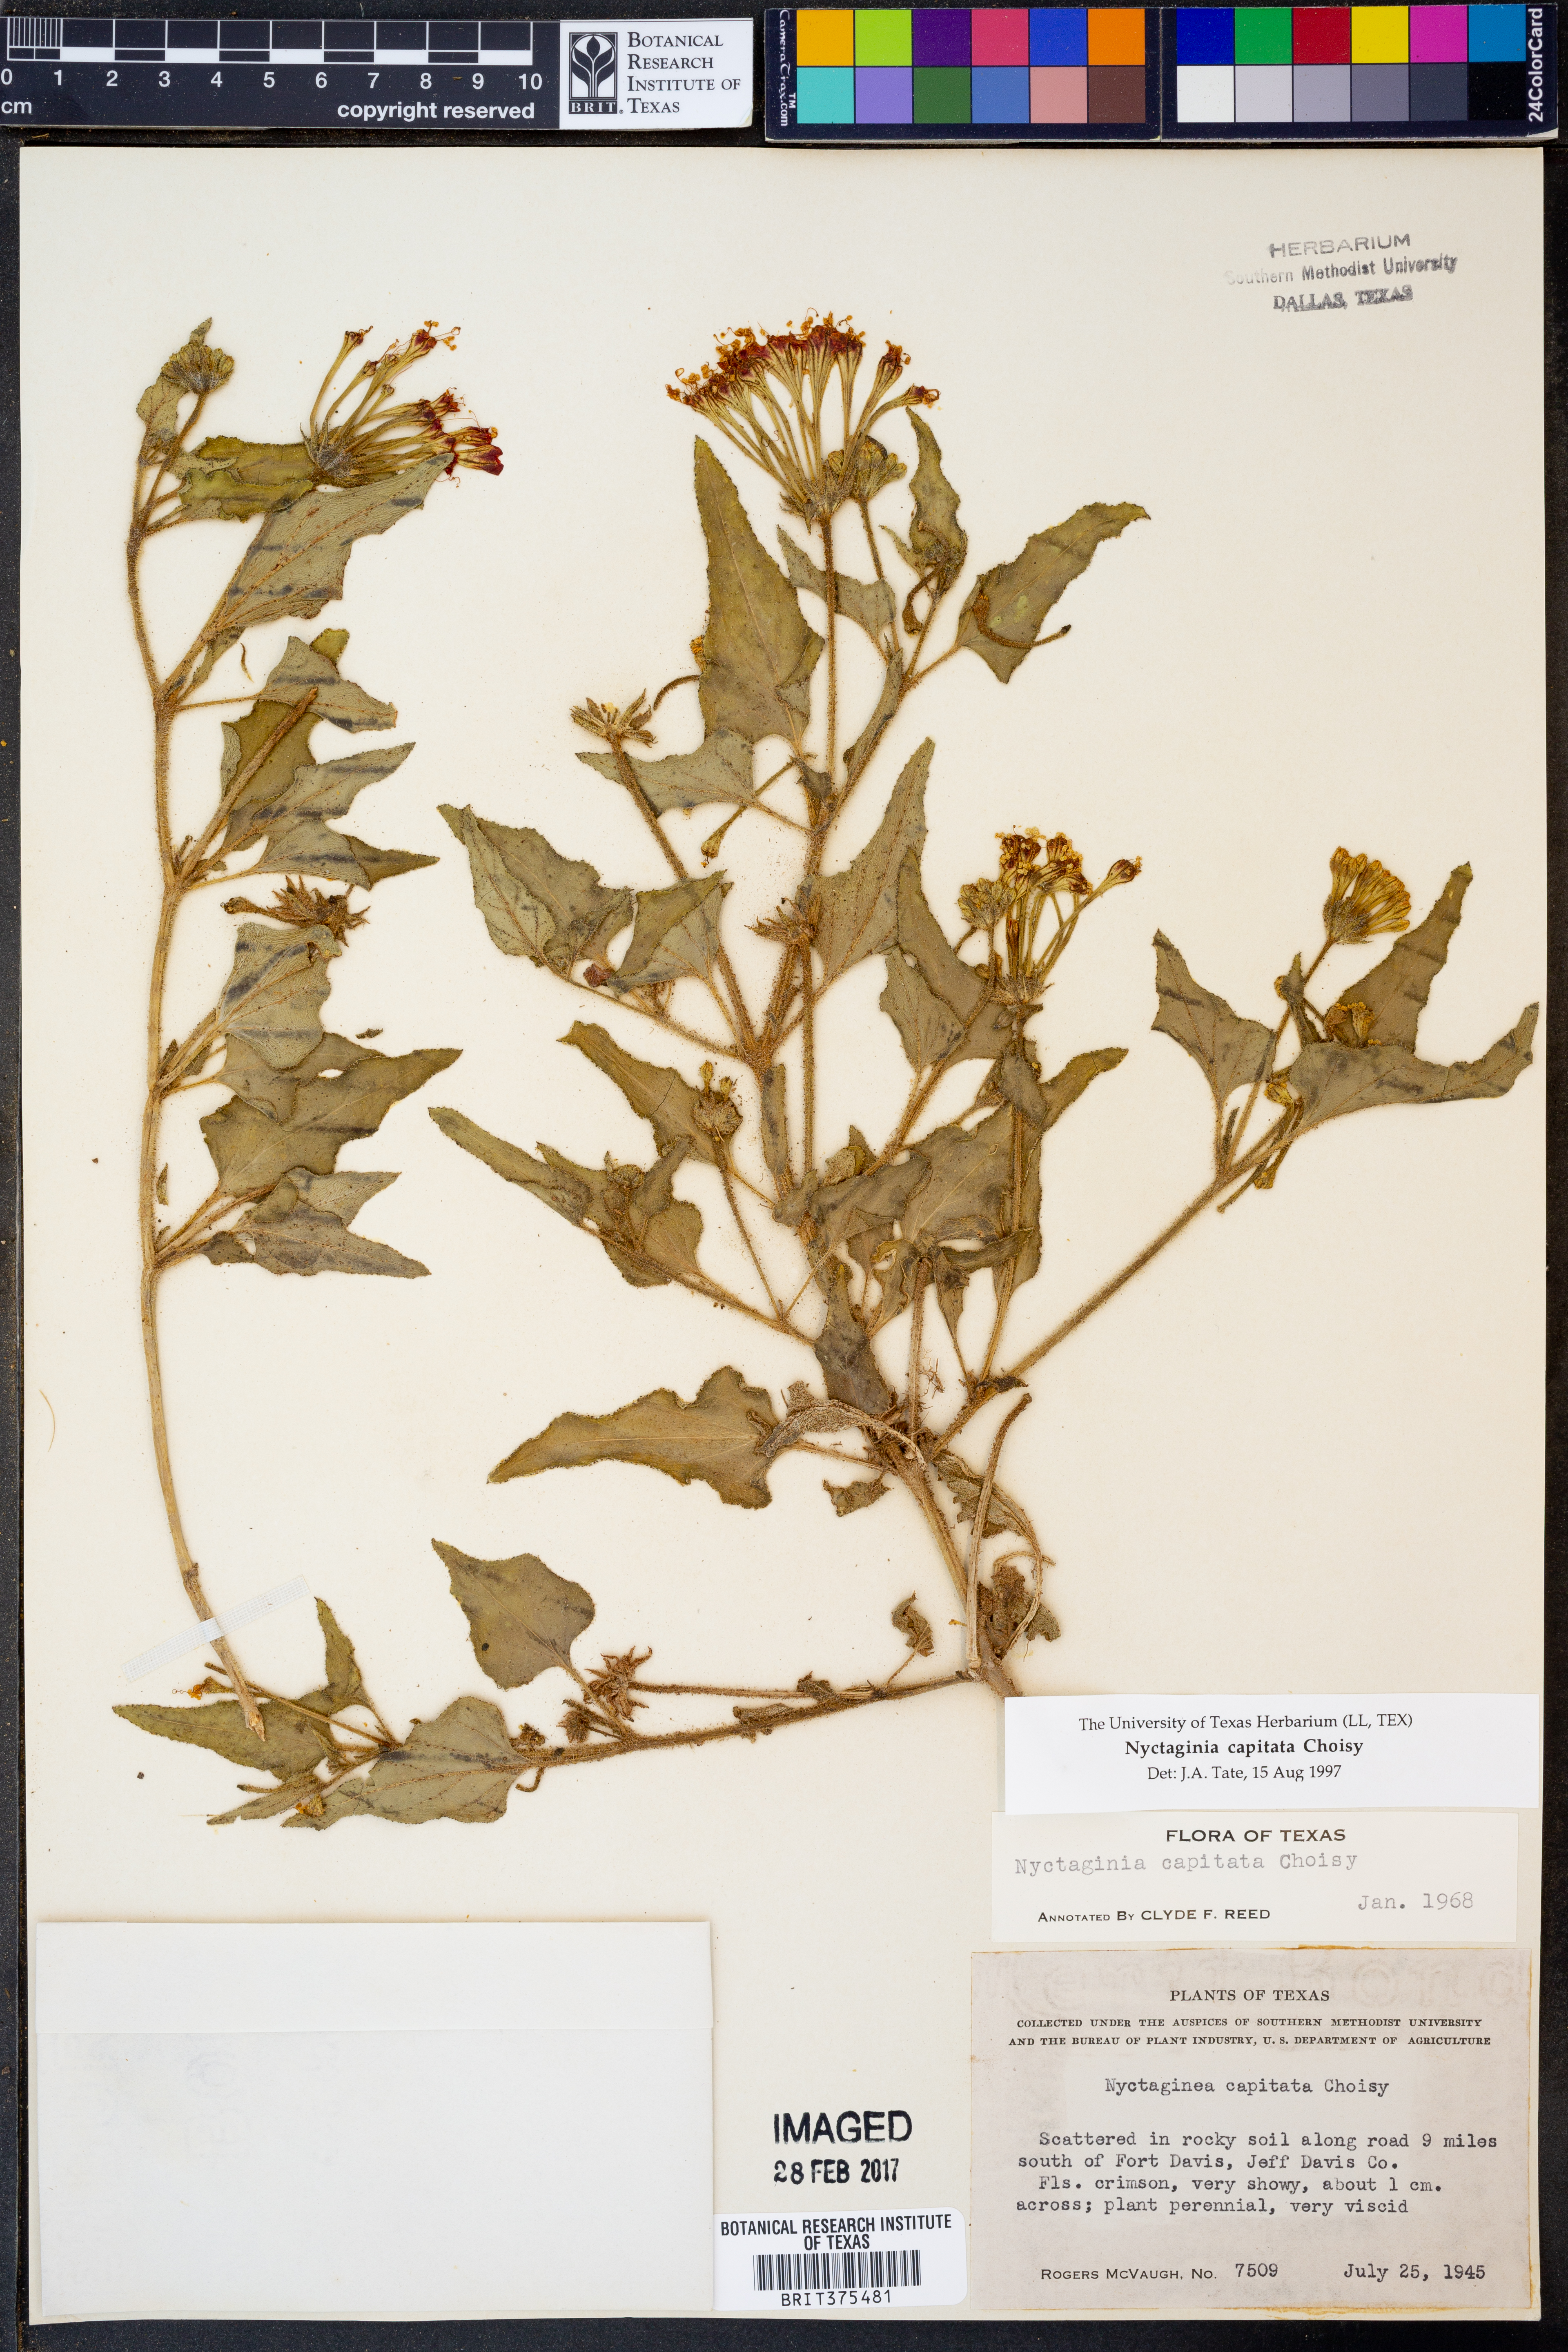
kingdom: Plantae
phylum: Tracheophyta
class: Magnoliopsida
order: Caryophyllales
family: Nyctaginaceae
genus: Nyctaginia
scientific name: Nyctaginia capitata
